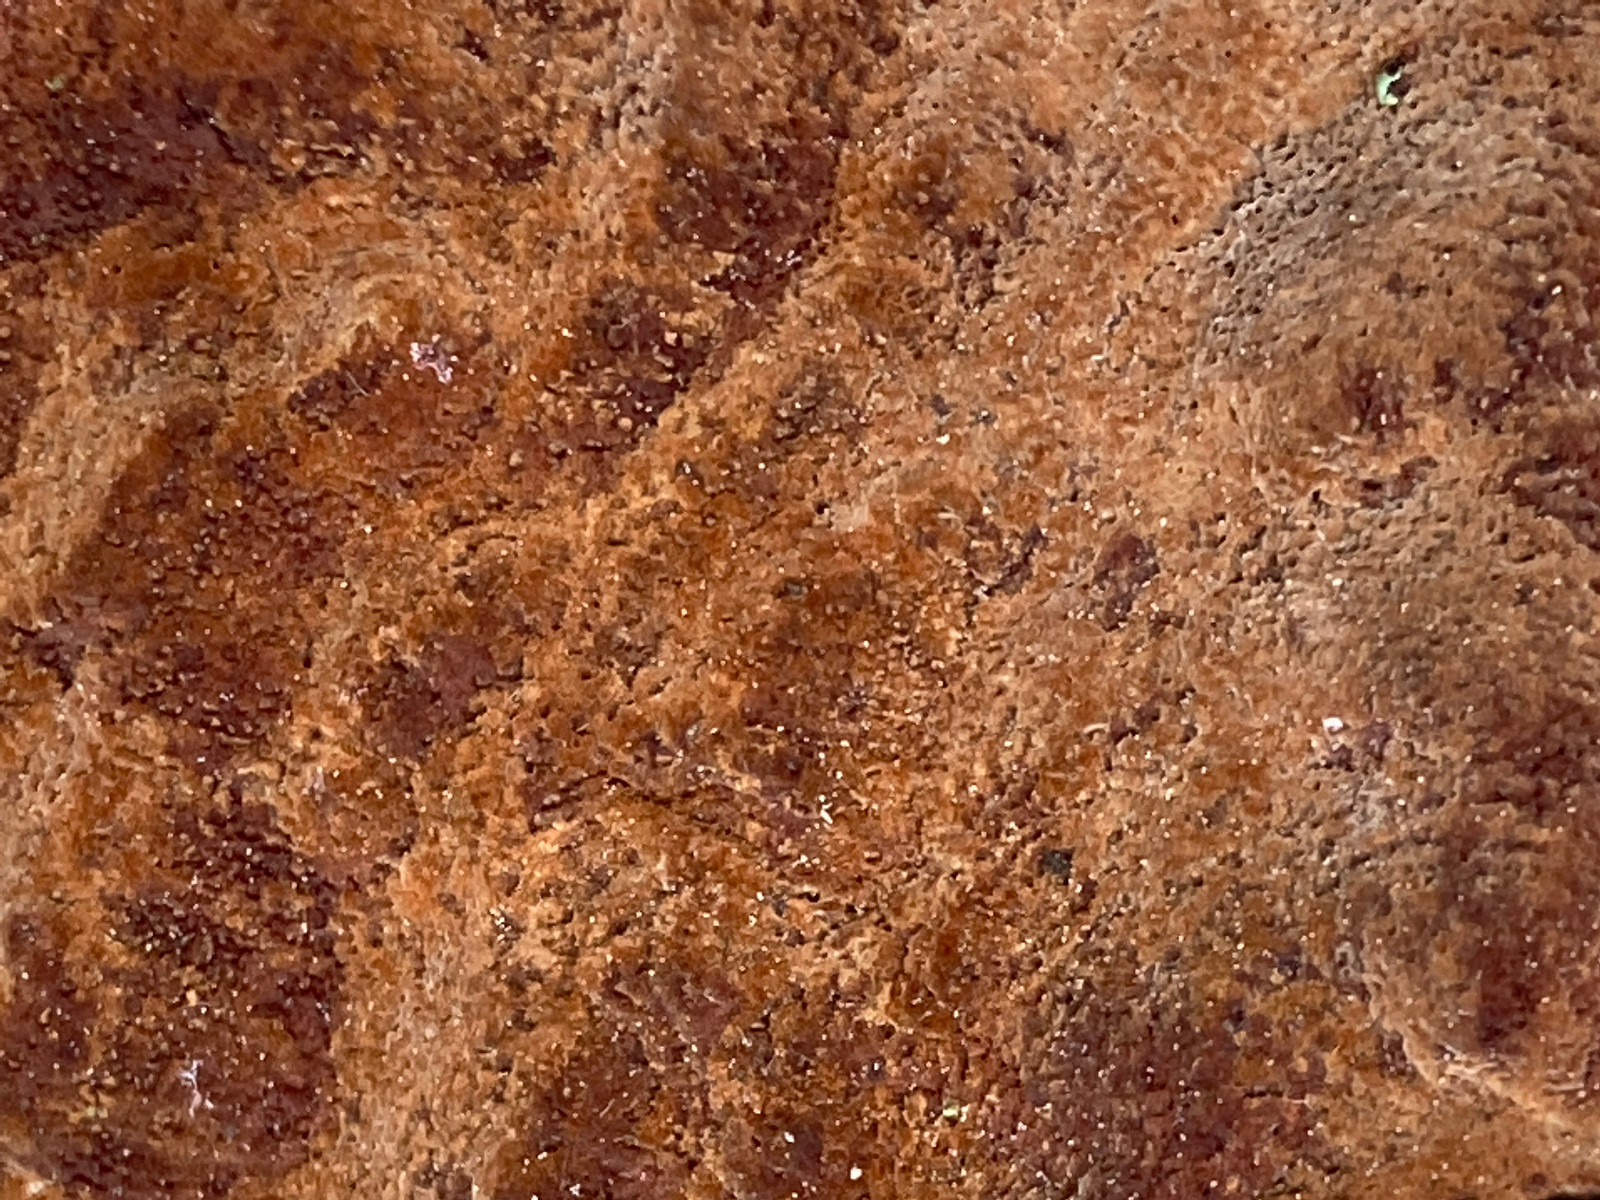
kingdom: Fungi
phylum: Basidiomycota
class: Agaricomycetes
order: Hymenochaetales
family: Hymenochaetaceae
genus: Fuscoporia
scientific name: Fuscoporia ferrea
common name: skorpe-ildporesvamp
